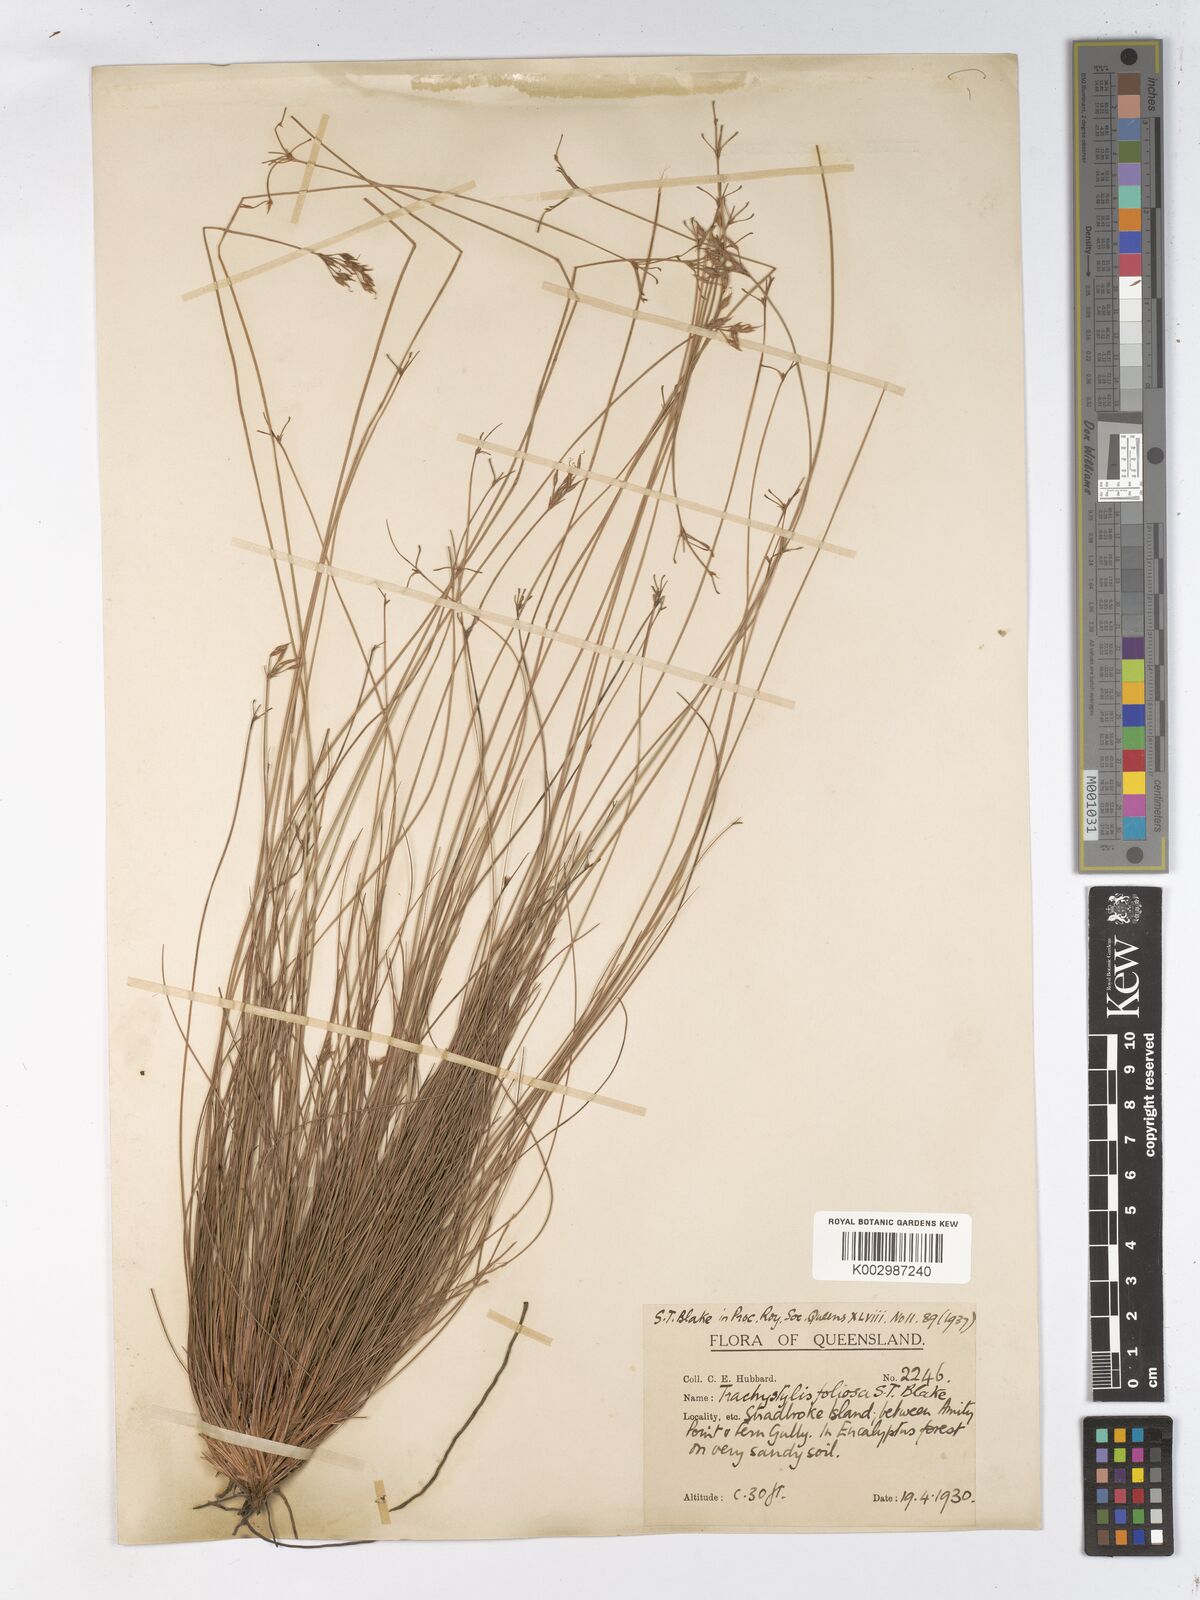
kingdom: Plantae
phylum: Tracheophyta
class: Liliopsida
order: Poales
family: Cyperaceae
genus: Trachystylis
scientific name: Trachystylis stradbrokensis
